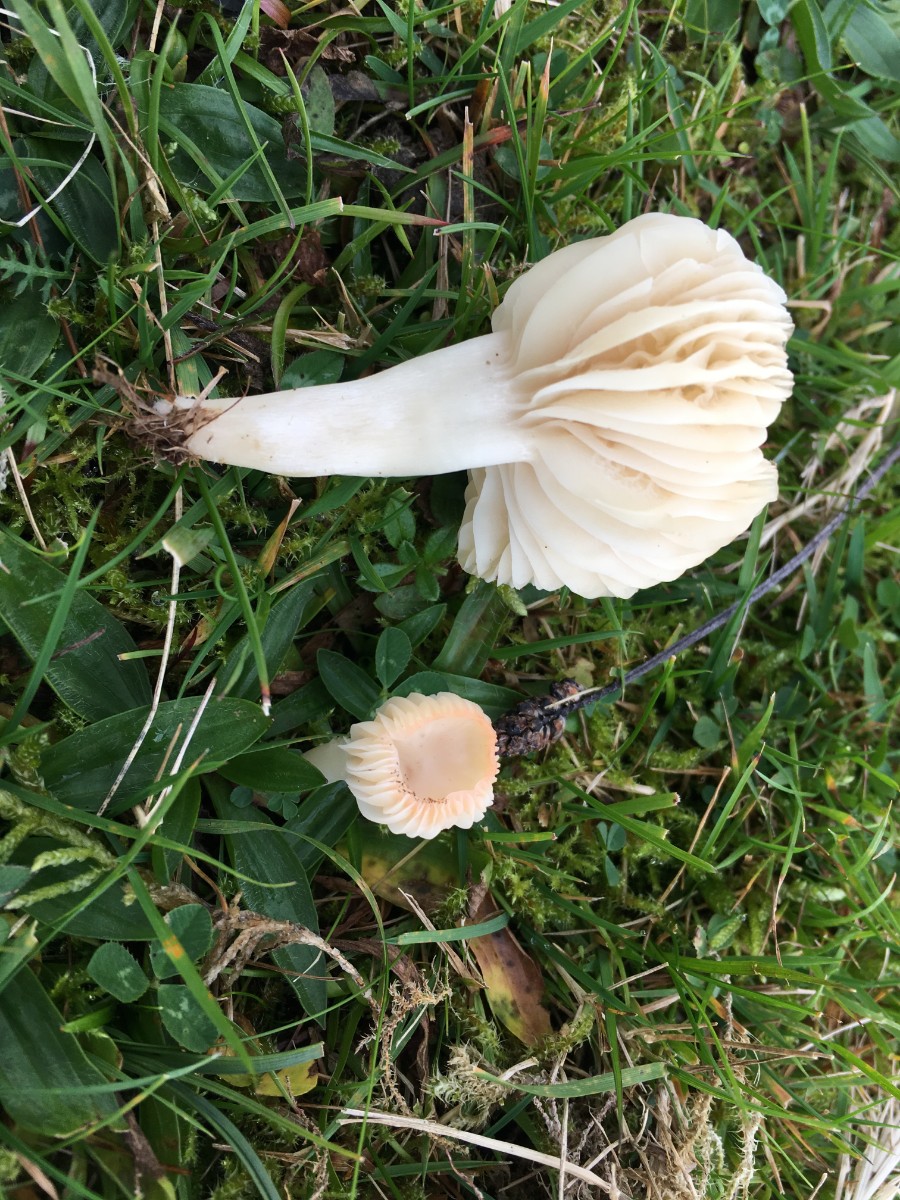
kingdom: Fungi
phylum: Basidiomycota
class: Agaricomycetes
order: Agaricales
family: Hygrophoraceae
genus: Cuphophyllus
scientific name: Cuphophyllus virgineus
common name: snehvid vokshat
